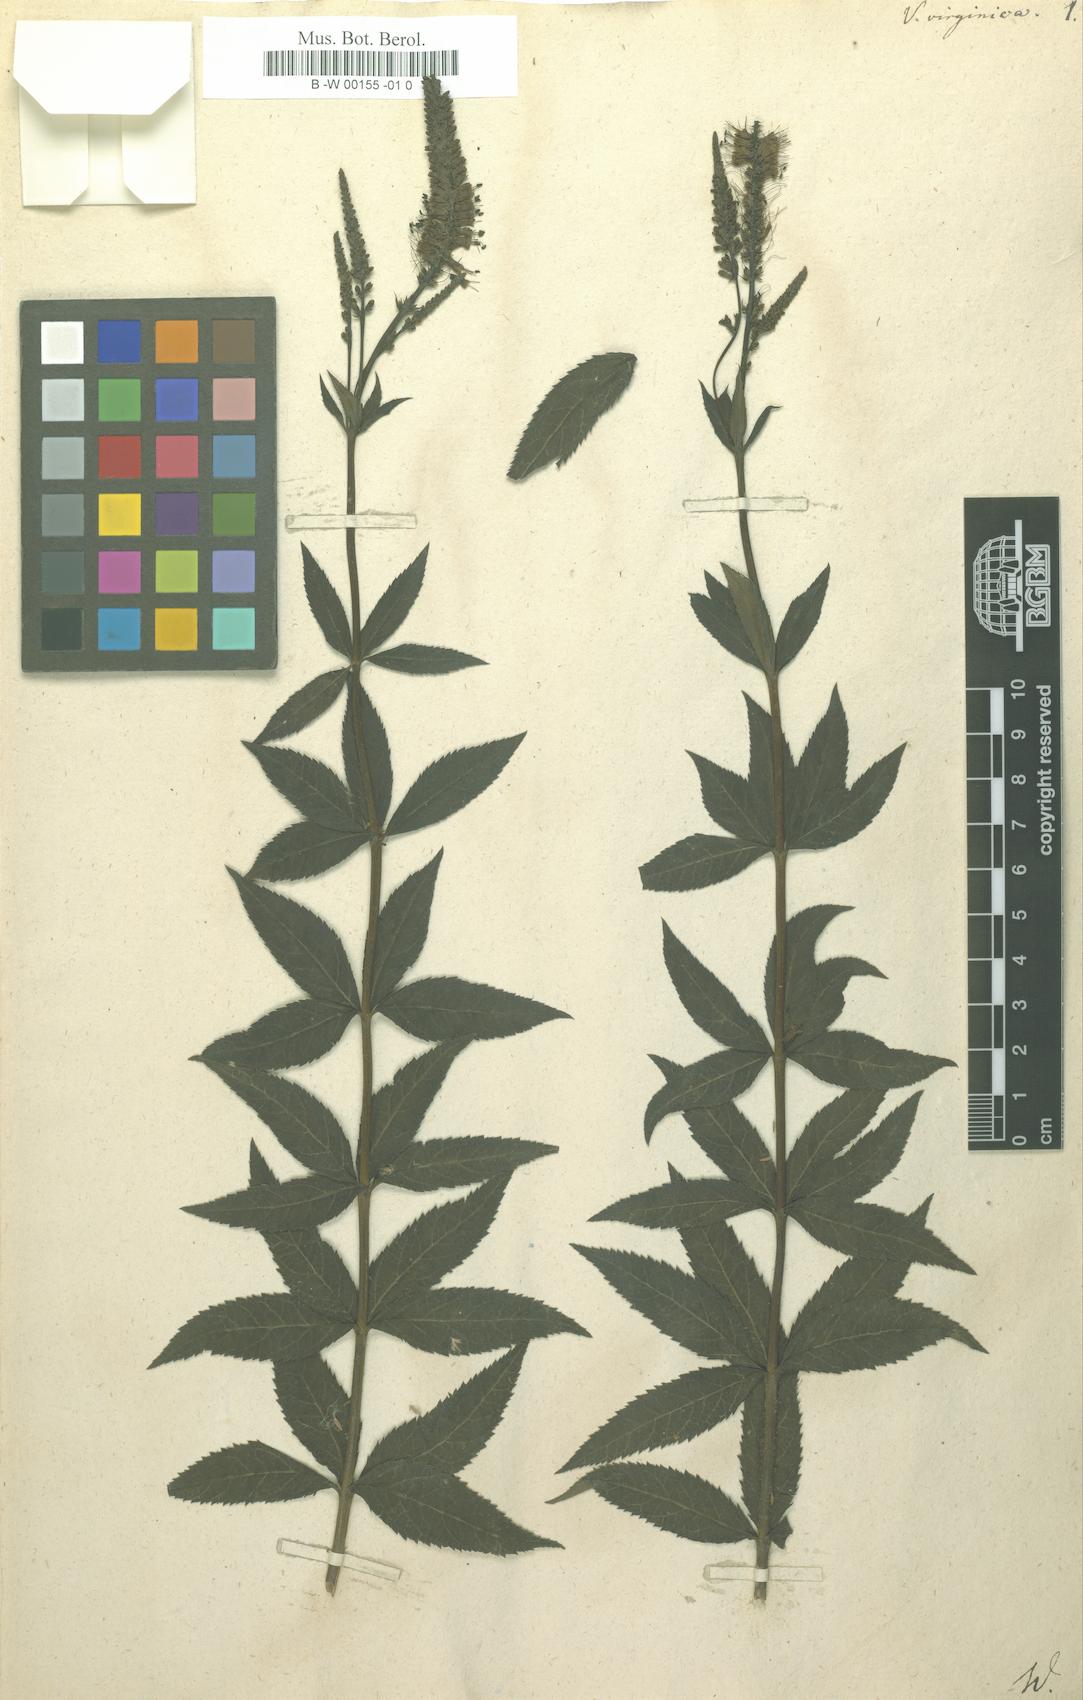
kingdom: Plantae
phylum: Tracheophyta
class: Magnoliopsida
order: Lamiales
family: Plantaginaceae
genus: Veronicastrum
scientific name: Veronicastrum virginicum
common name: Blackroot
